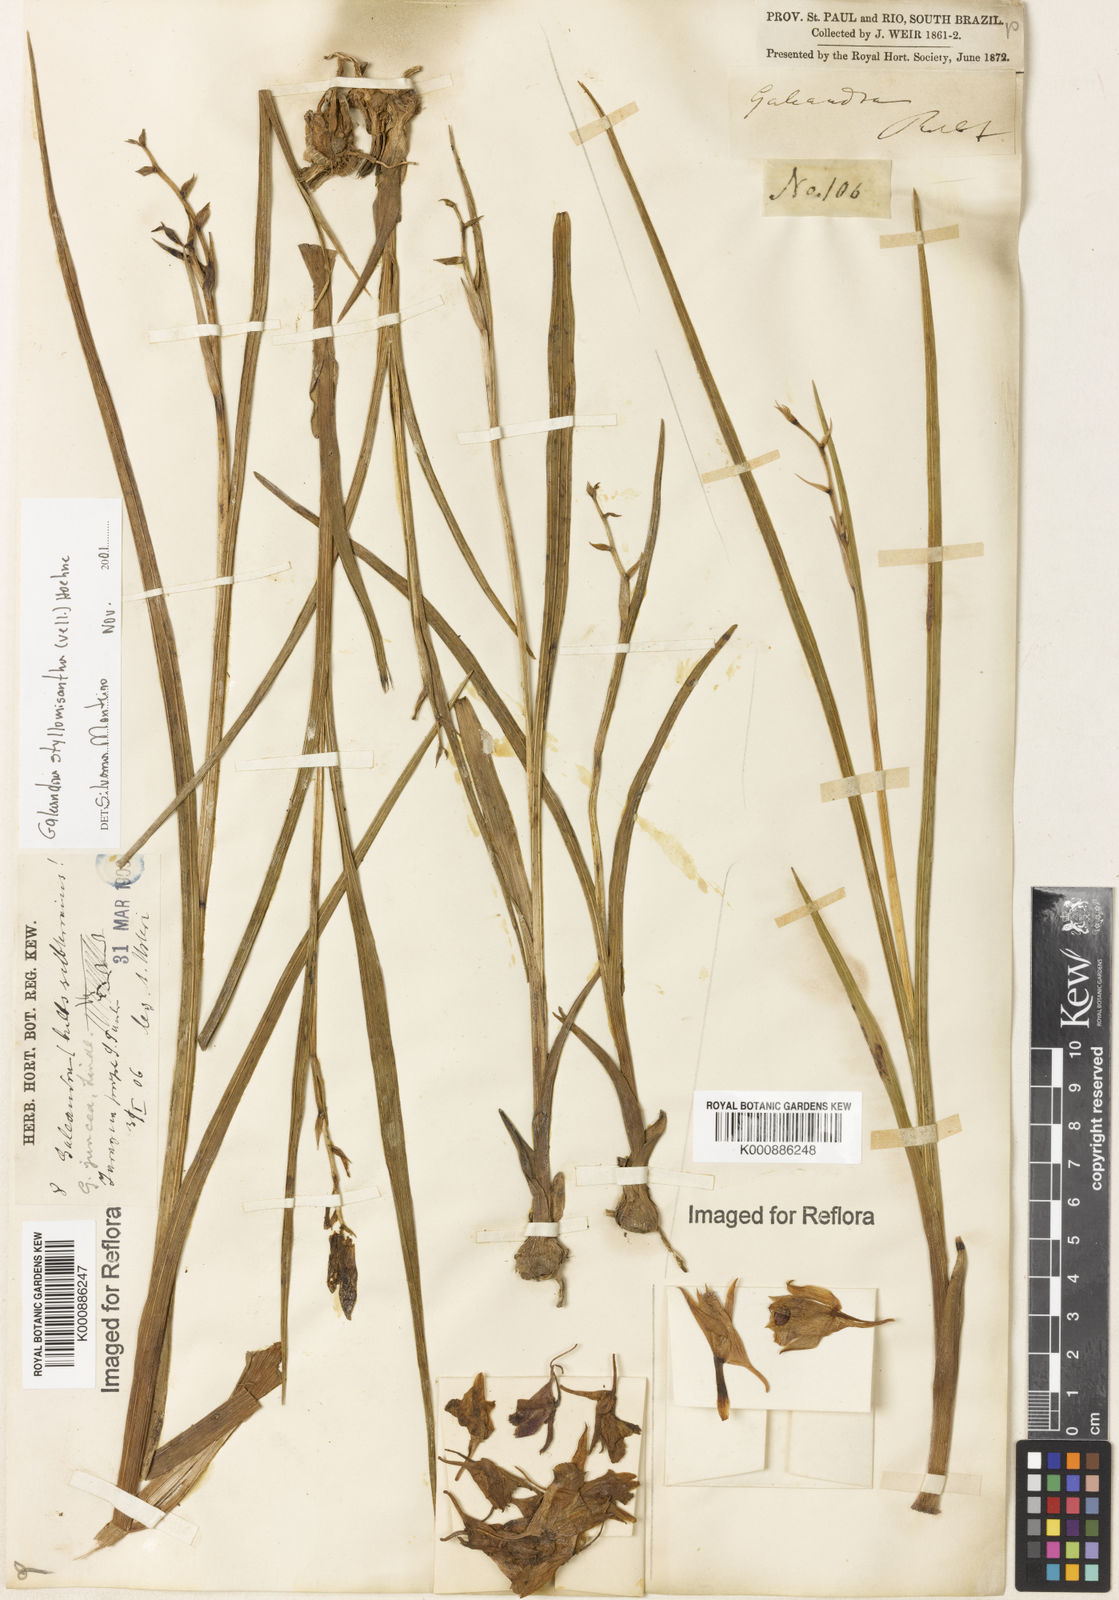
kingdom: Plantae
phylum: Tracheophyta
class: Liliopsida
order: Asparagales
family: Orchidaceae
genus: Galeandra
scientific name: Galeandra styllomisantha
